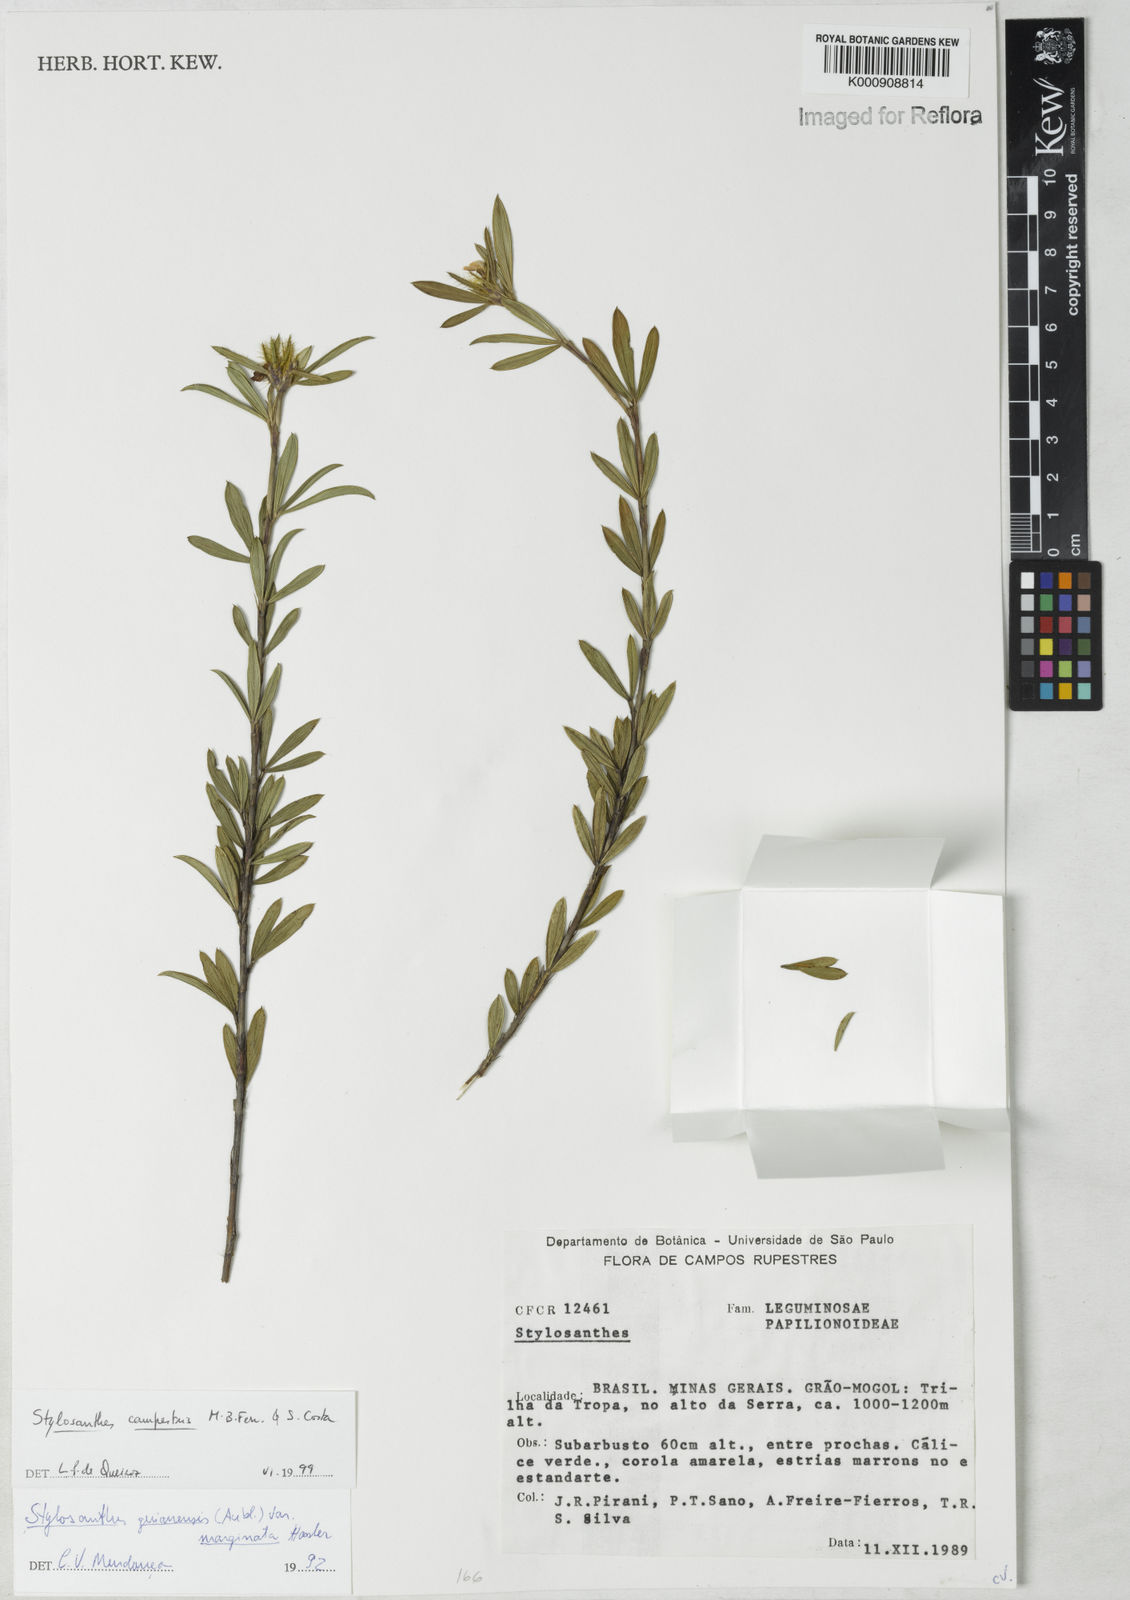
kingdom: Plantae
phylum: Tracheophyta
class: Magnoliopsida
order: Fabales
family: Fabaceae
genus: Stylosanthes
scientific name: Stylosanthes campestris
